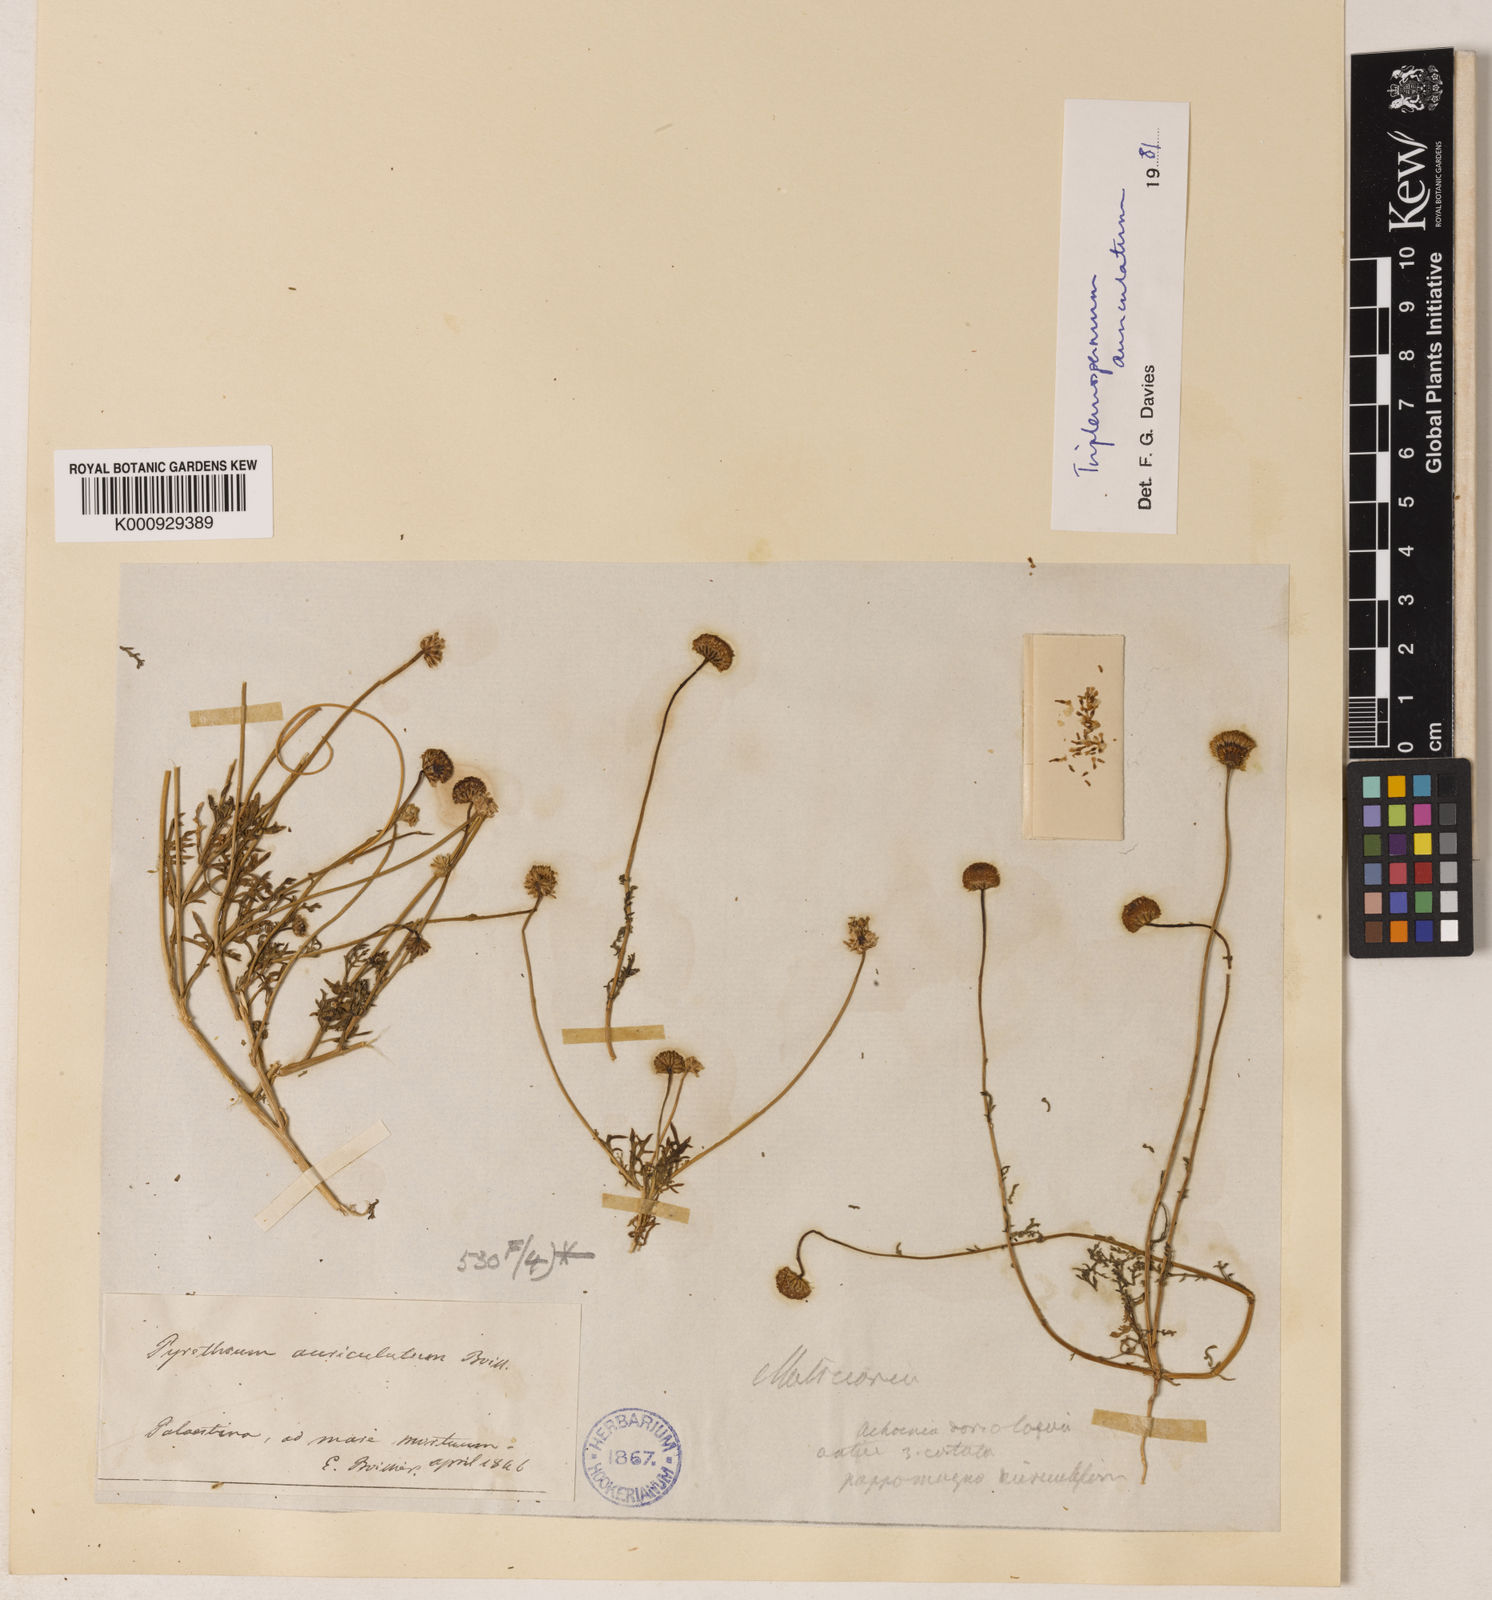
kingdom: Plantae
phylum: Tracheophyta
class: Magnoliopsida
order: Asterales
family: Asteraceae
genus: Tripleurospermum
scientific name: Tripleurospermum auriculatum
